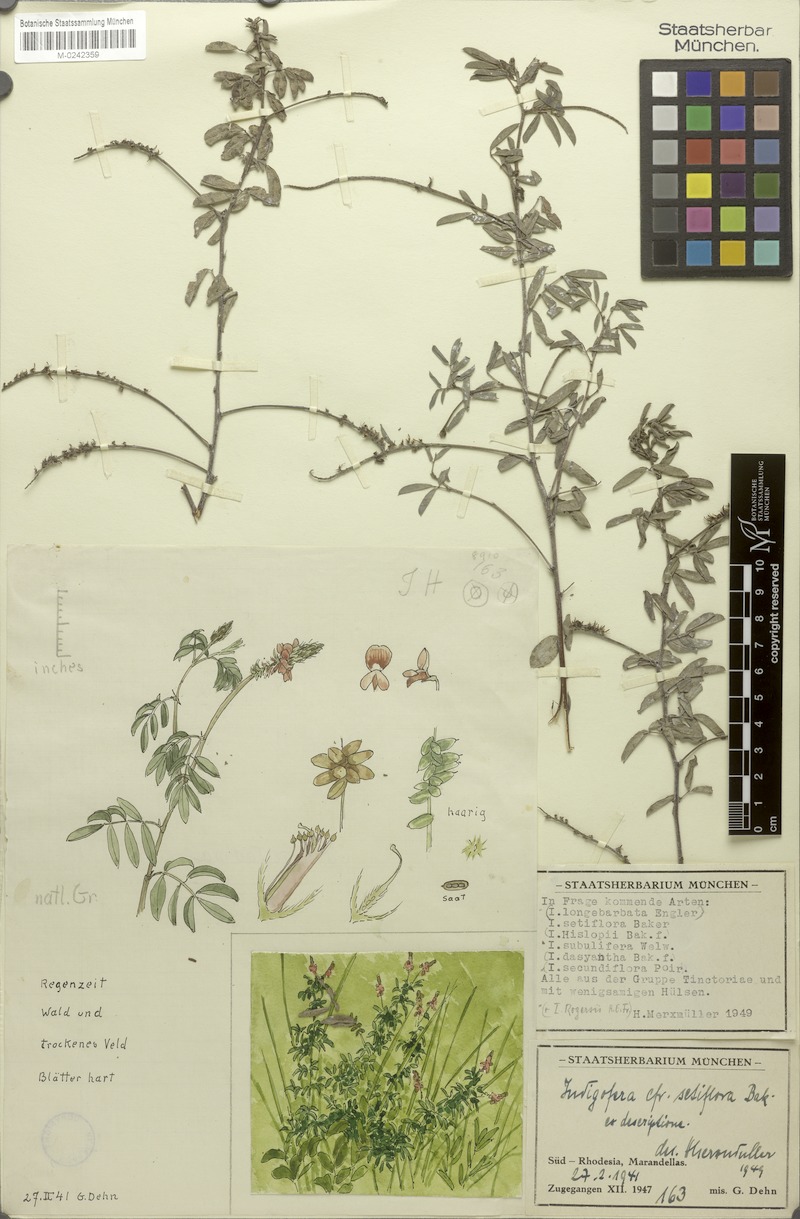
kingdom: Plantae
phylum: Tracheophyta
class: Magnoliopsida
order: Fabales
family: Fabaceae
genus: Indigofera
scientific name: Indigofera setiflora
